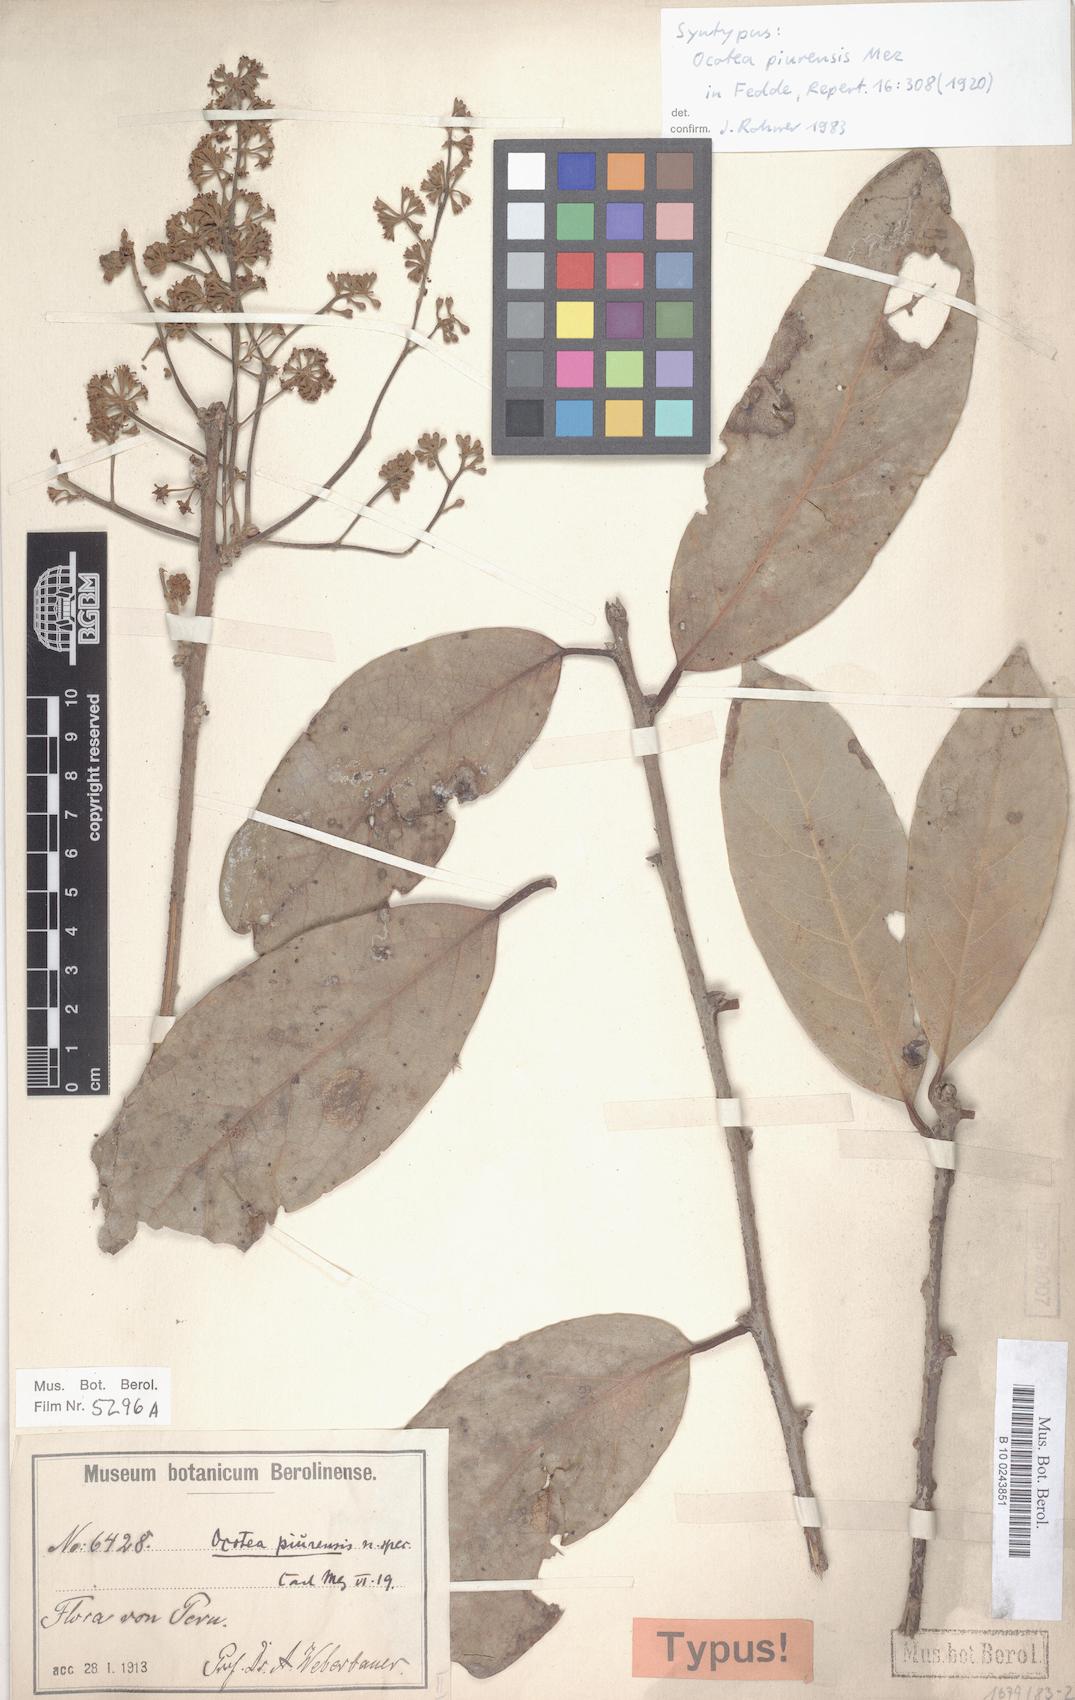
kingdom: Plantae
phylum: Tracheophyta
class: Magnoliopsida
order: Laurales
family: Lauraceae
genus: Ocotea
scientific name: Ocotea piurensis
